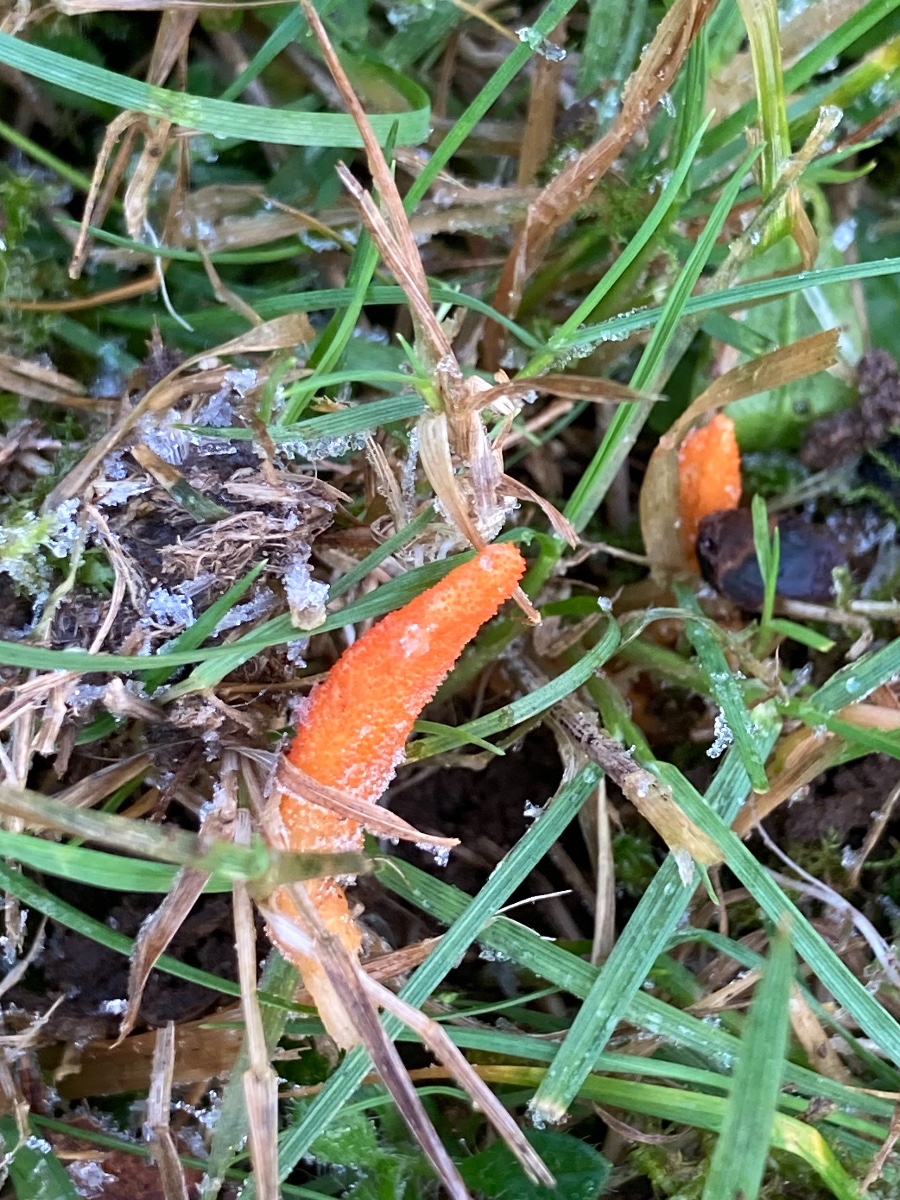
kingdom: Fungi
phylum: Ascomycota
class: Sordariomycetes
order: Hypocreales
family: Cordycipitaceae
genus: Cordyceps
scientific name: Cordyceps militaris
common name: puppe-snyltekølle
